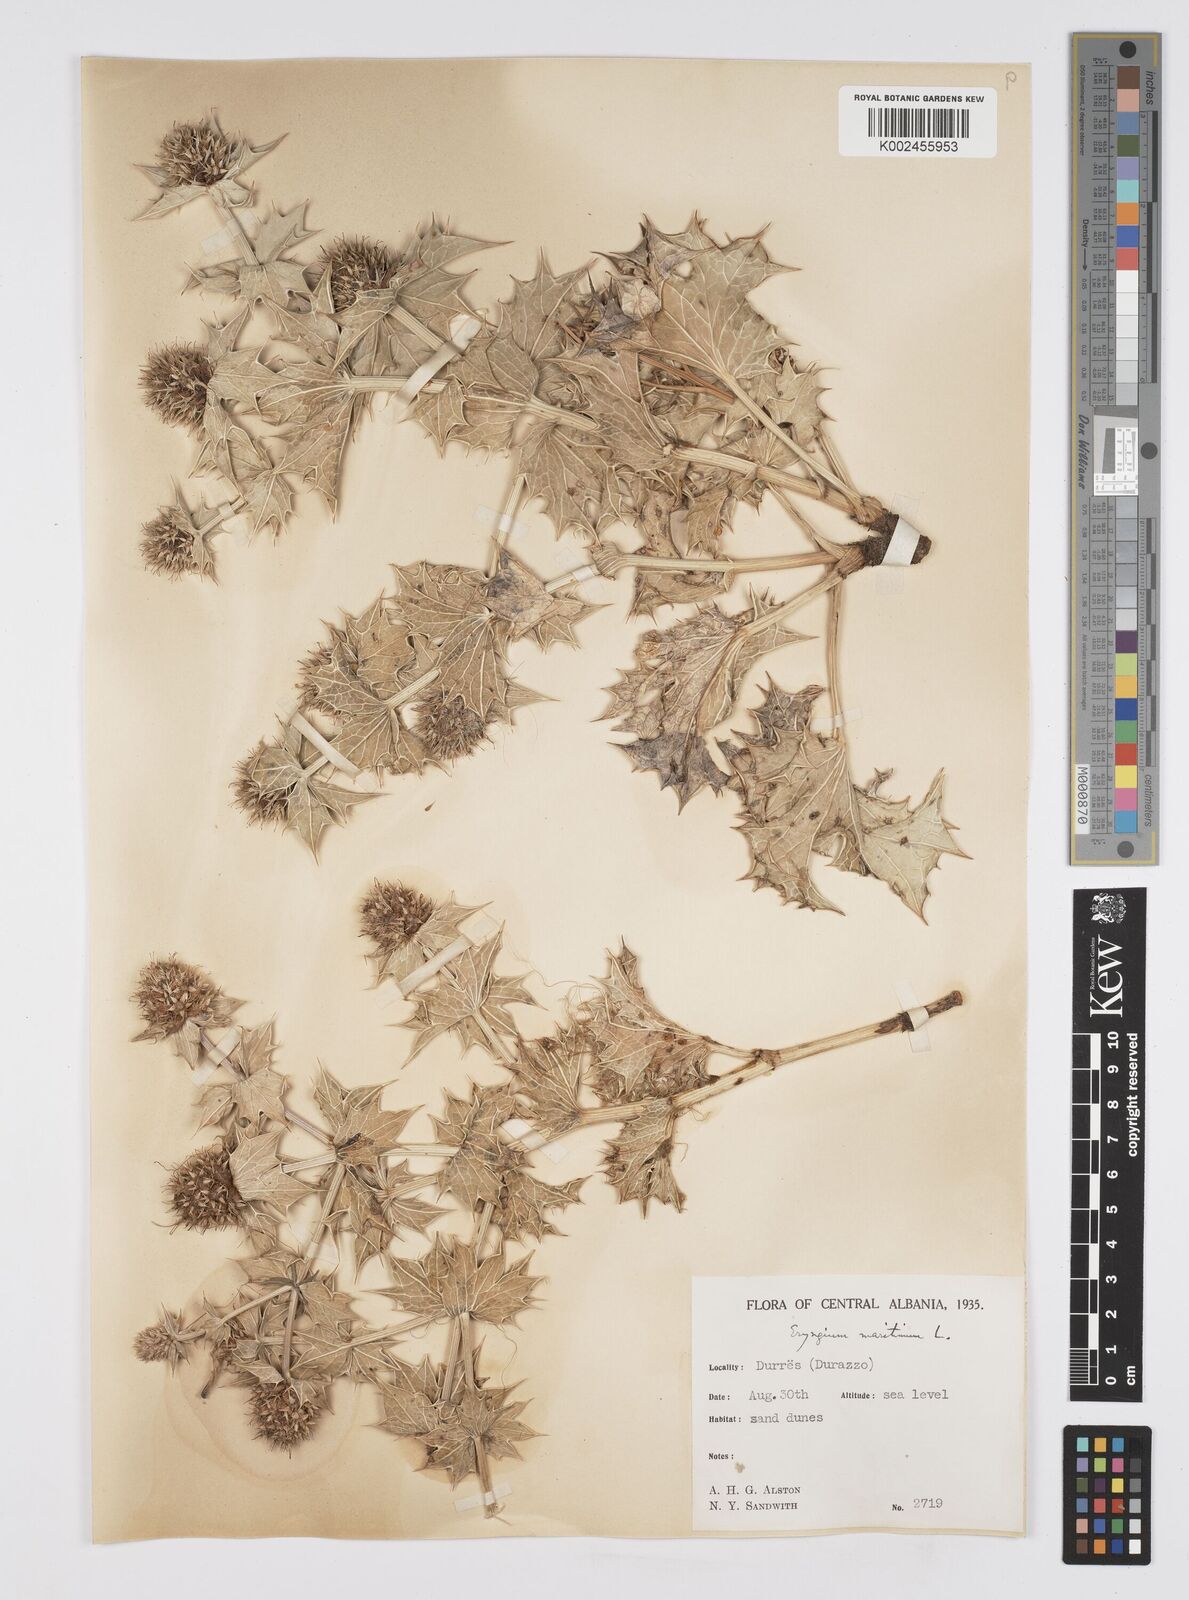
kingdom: Plantae
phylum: Tracheophyta
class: Magnoliopsida
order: Apiales
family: Apiaceae
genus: Eryngium
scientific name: Eryngium maritimum
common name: Sea-holly
